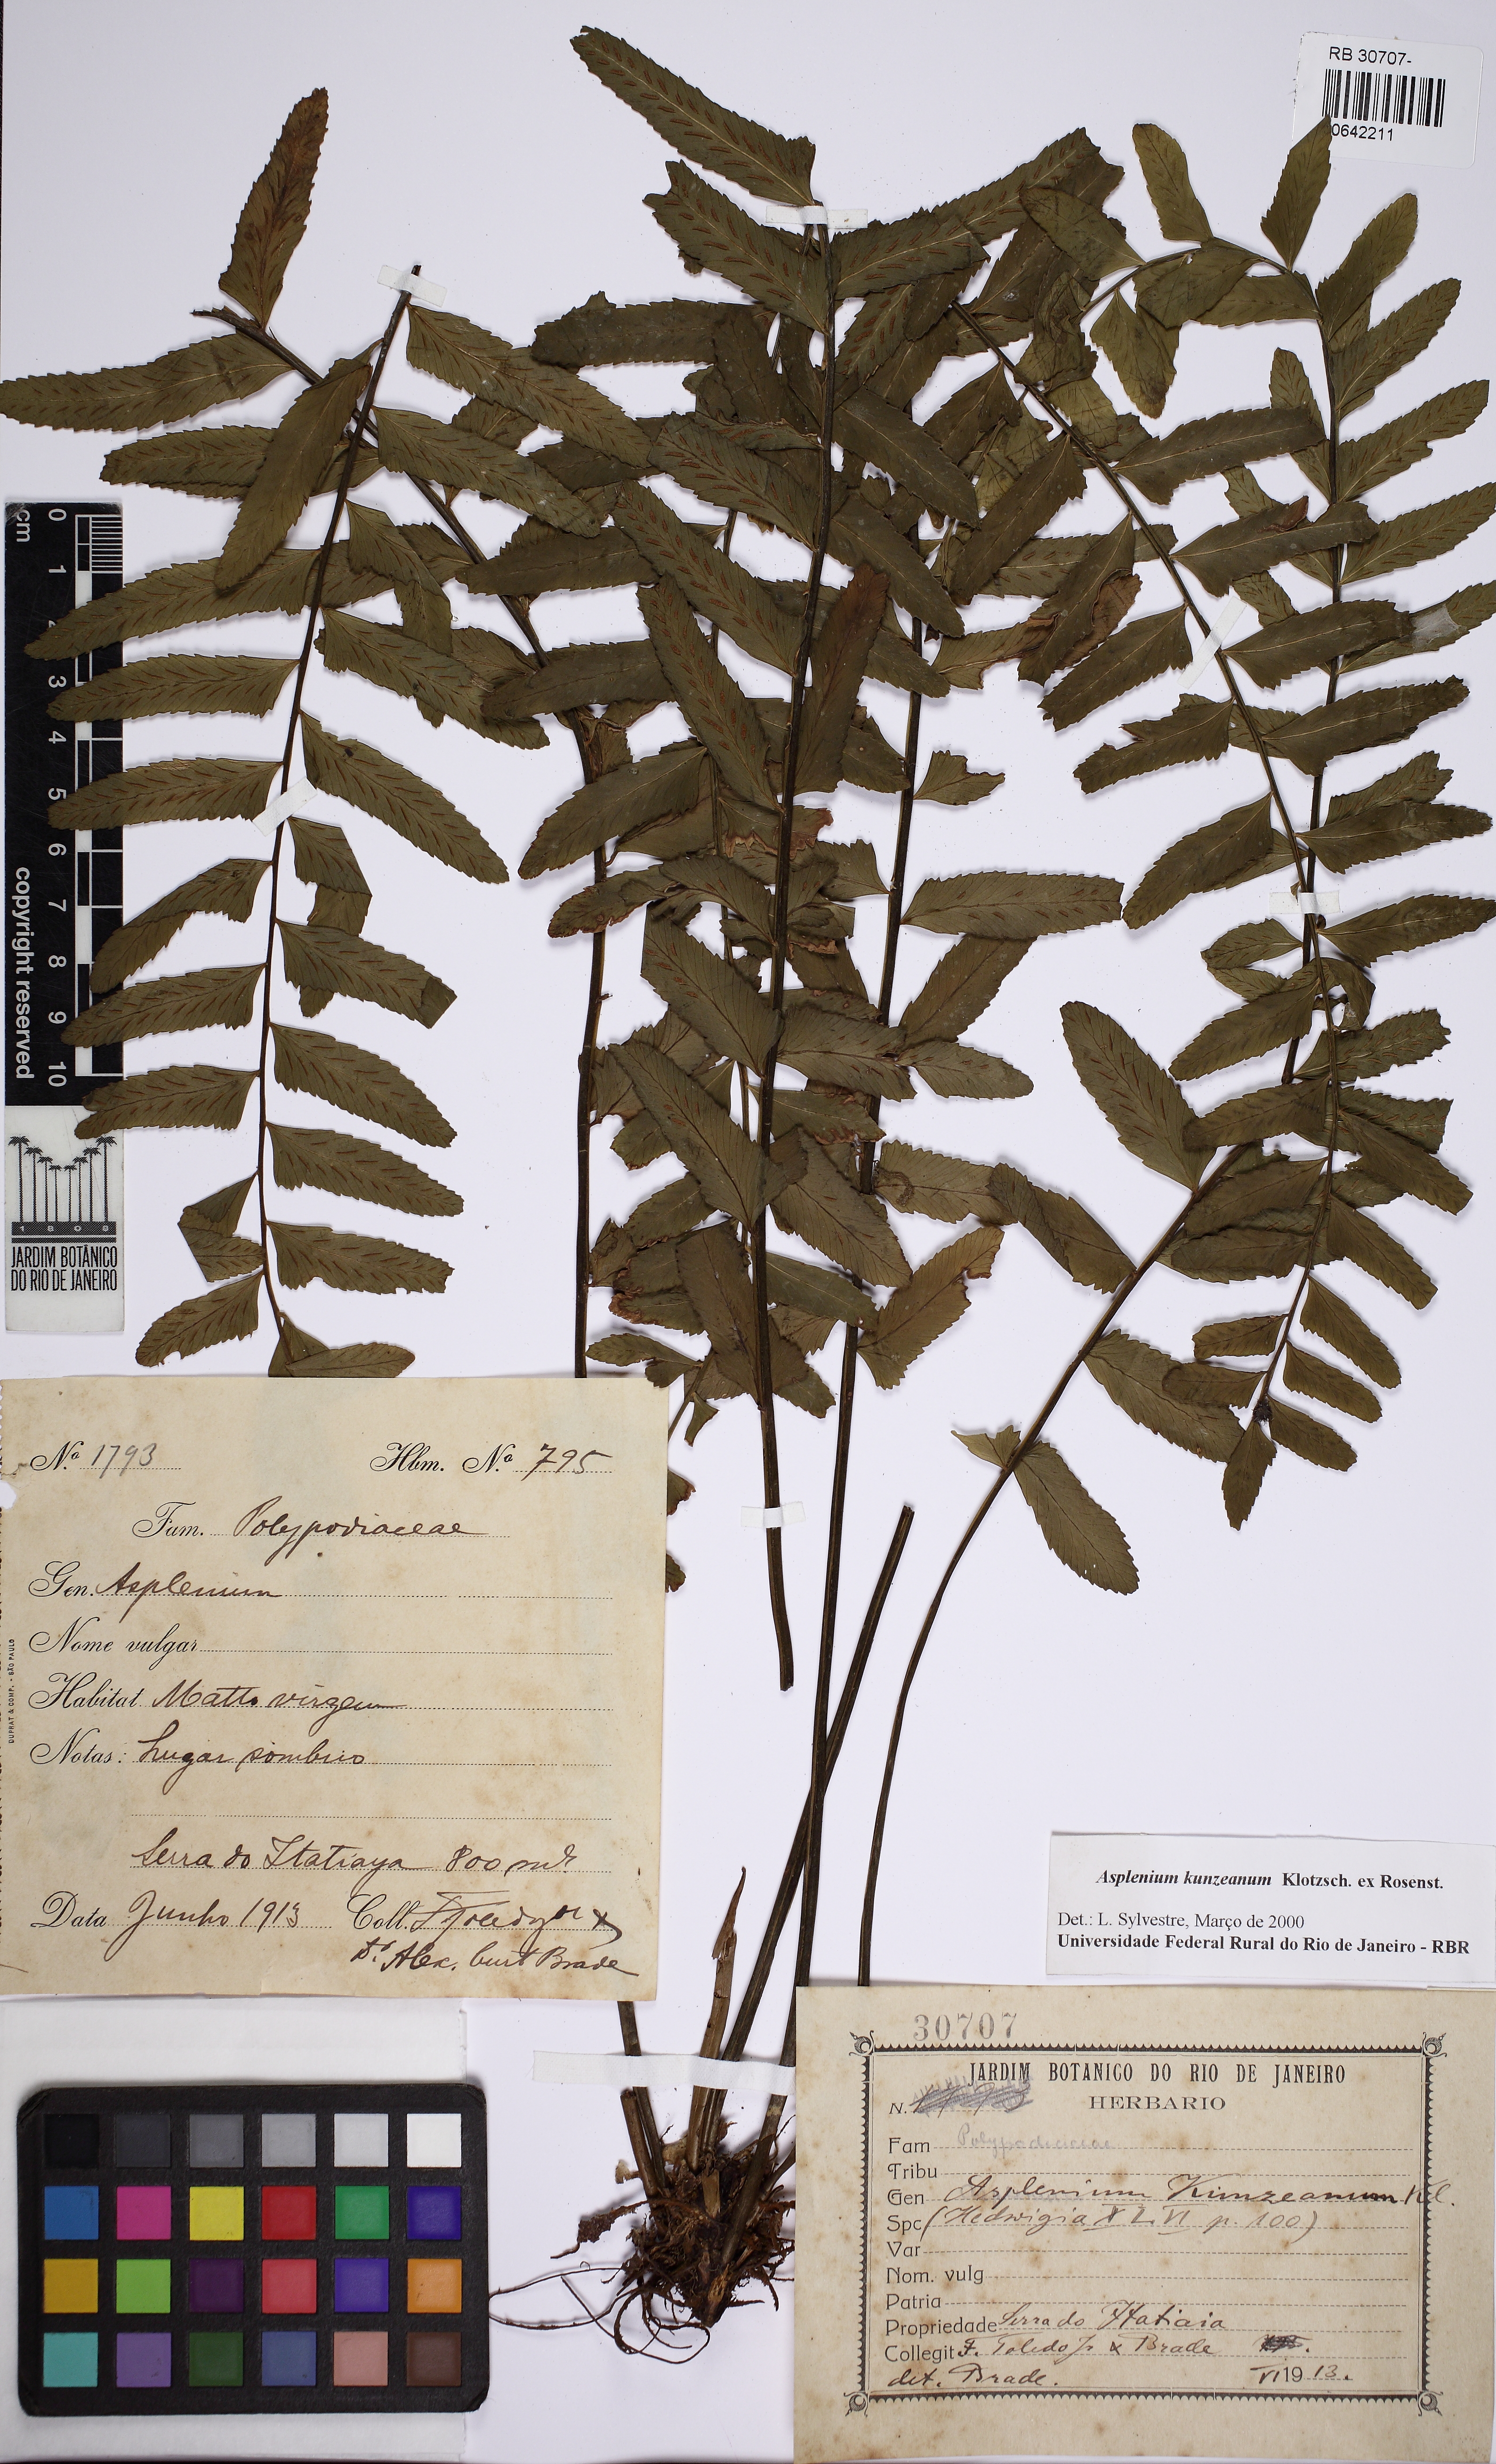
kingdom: Plantae
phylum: Tracheophyta
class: Polypodiopsida
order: Polypodiales
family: Aspleniaceae
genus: Asplenium
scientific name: Asplenium kunzeanum
